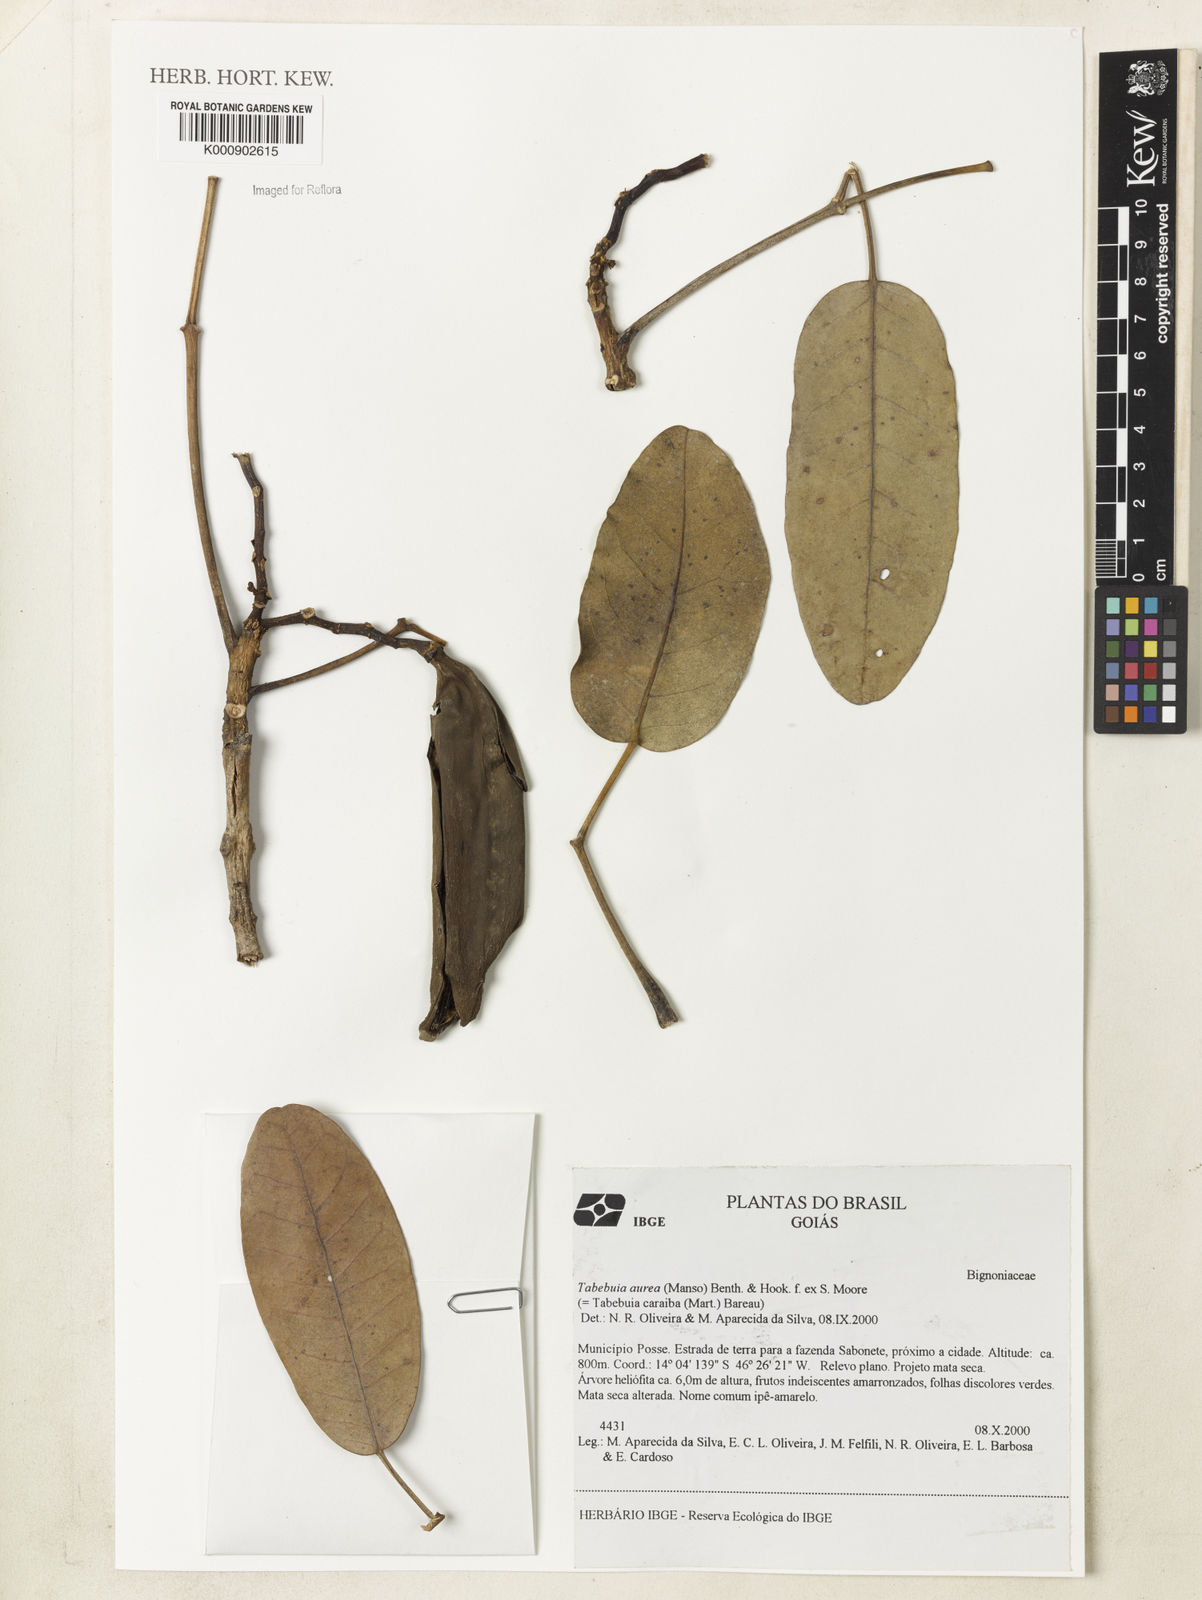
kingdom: Plantae
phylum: Tracheophyta
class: Magnoliopsida
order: Lamiales
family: Bignoniaceae
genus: Tabebuia
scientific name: Tabebuia aurea
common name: Caribbean trumpet-tree
